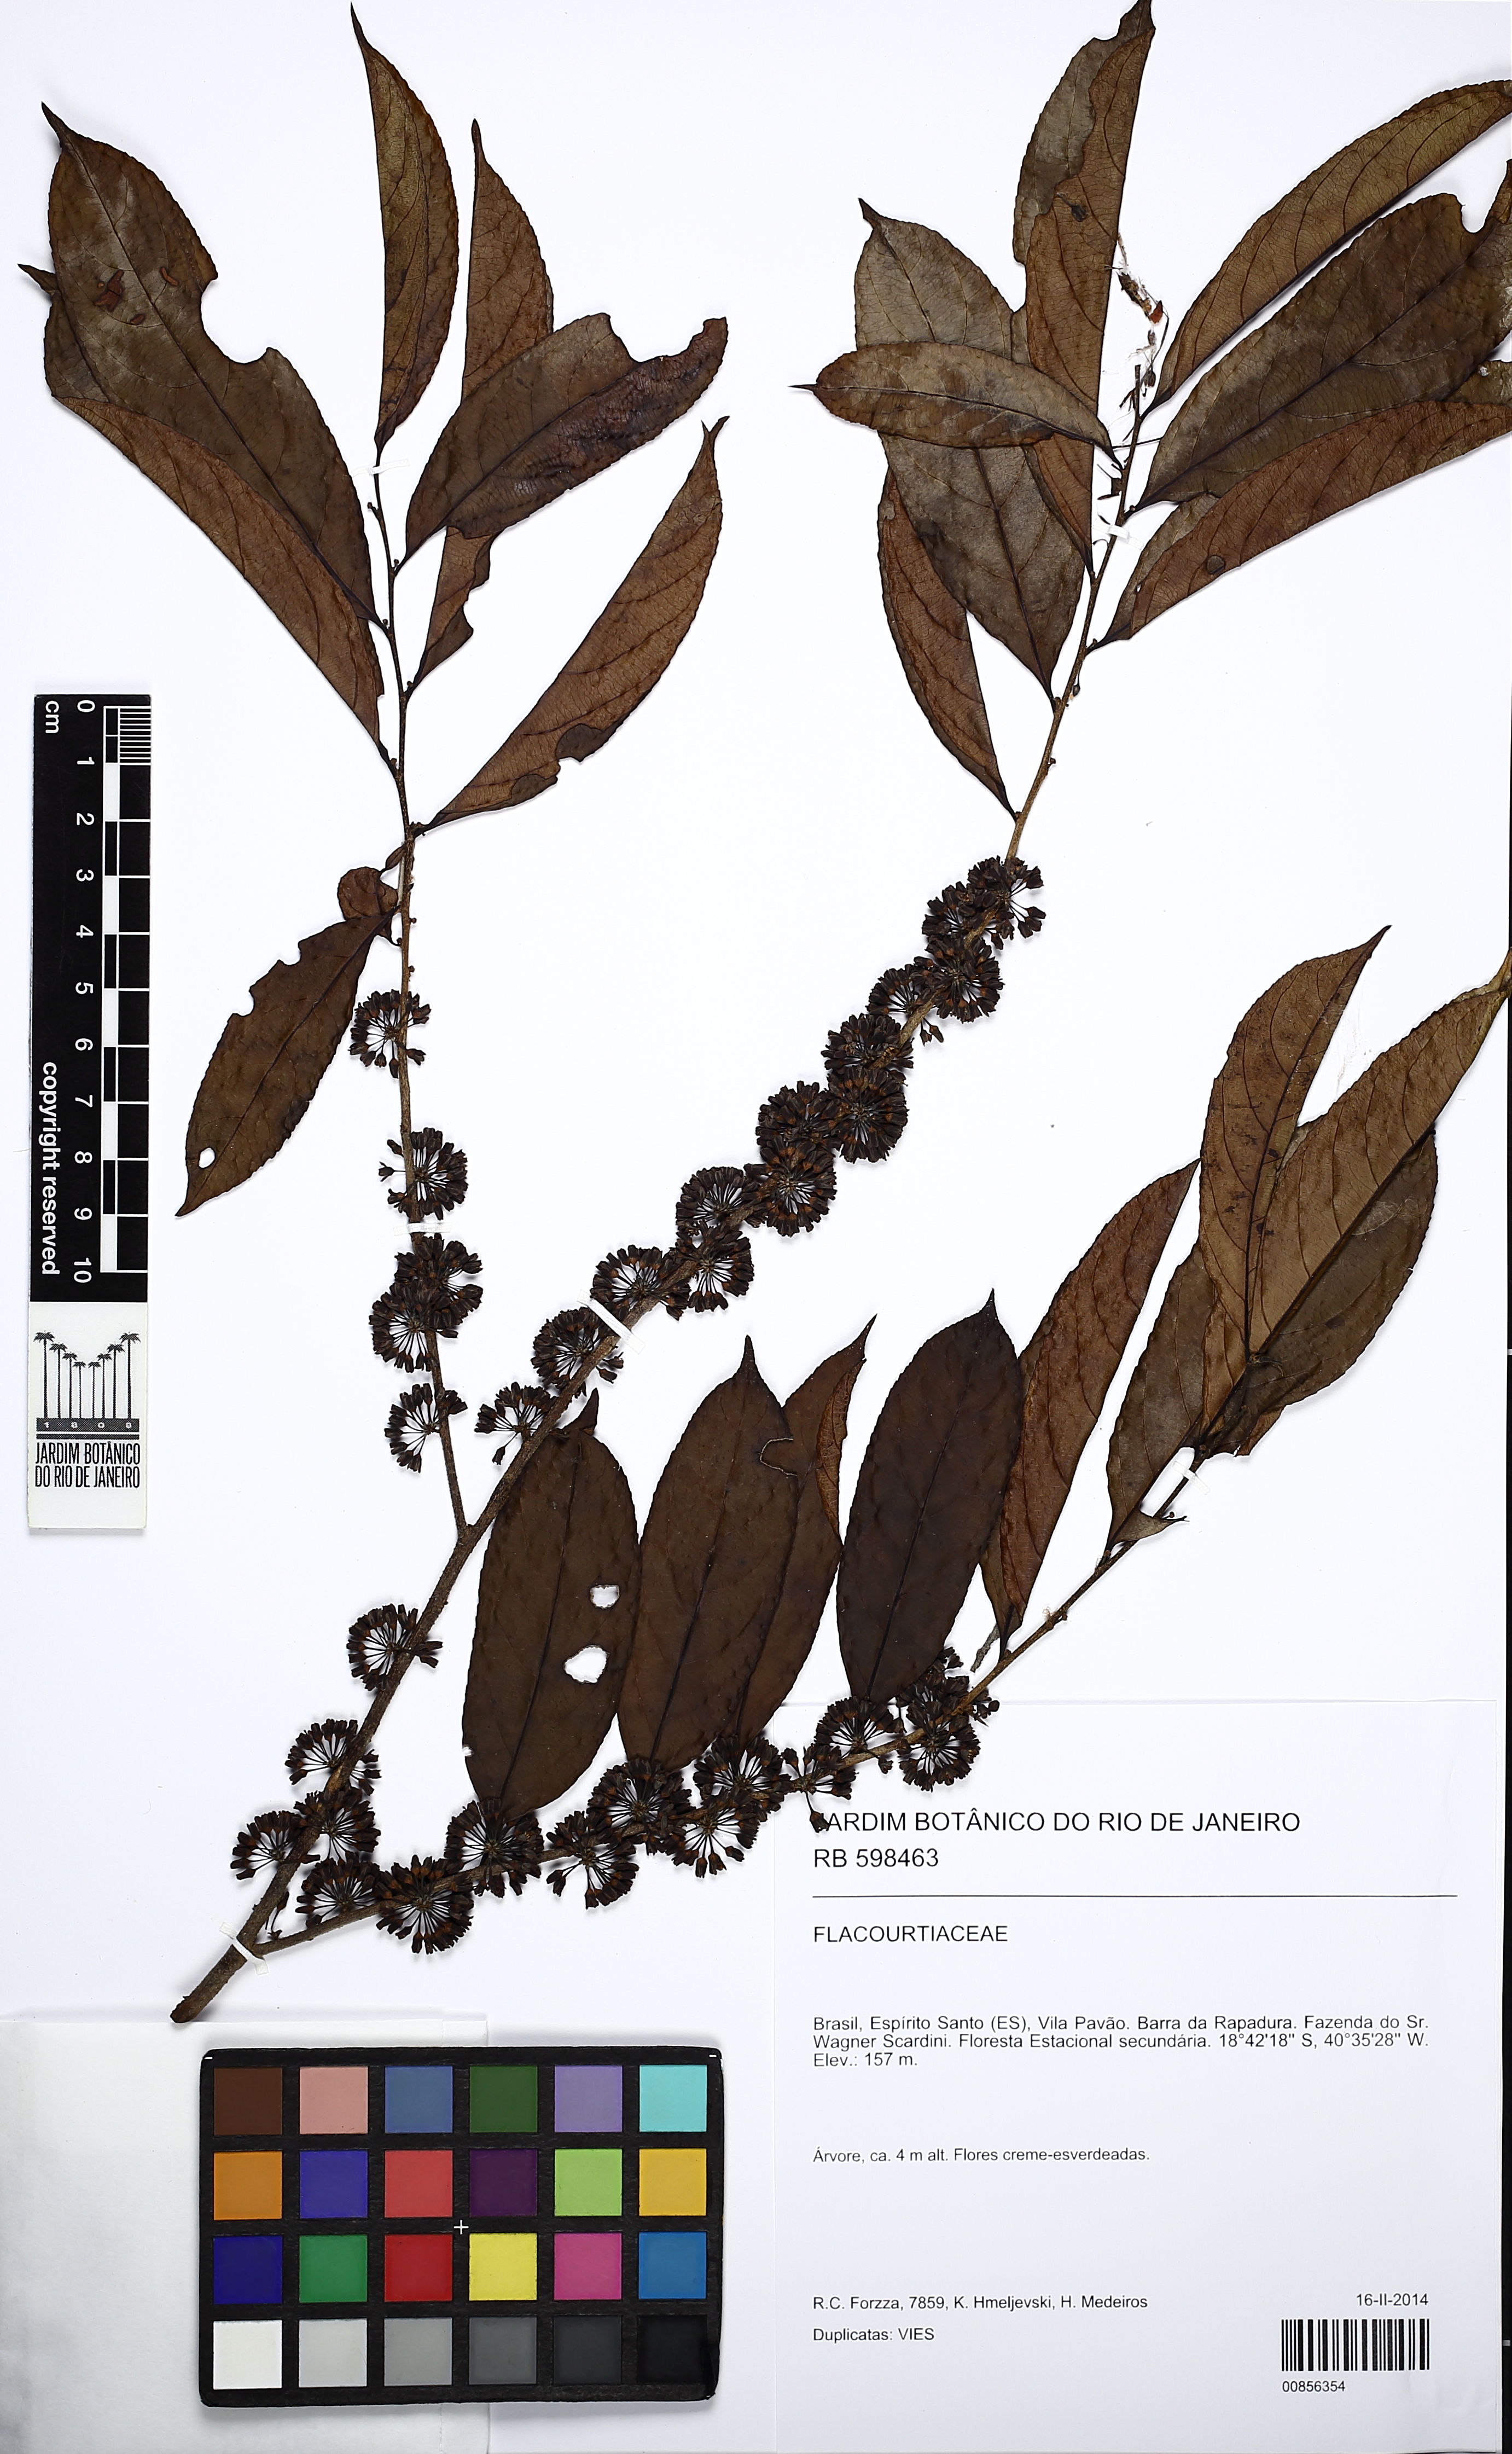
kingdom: Plantae
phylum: Tracheophyta
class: Magnoliopsida
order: Malpighiales
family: Salicaceae
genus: Casearia
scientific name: Casearia arborea
